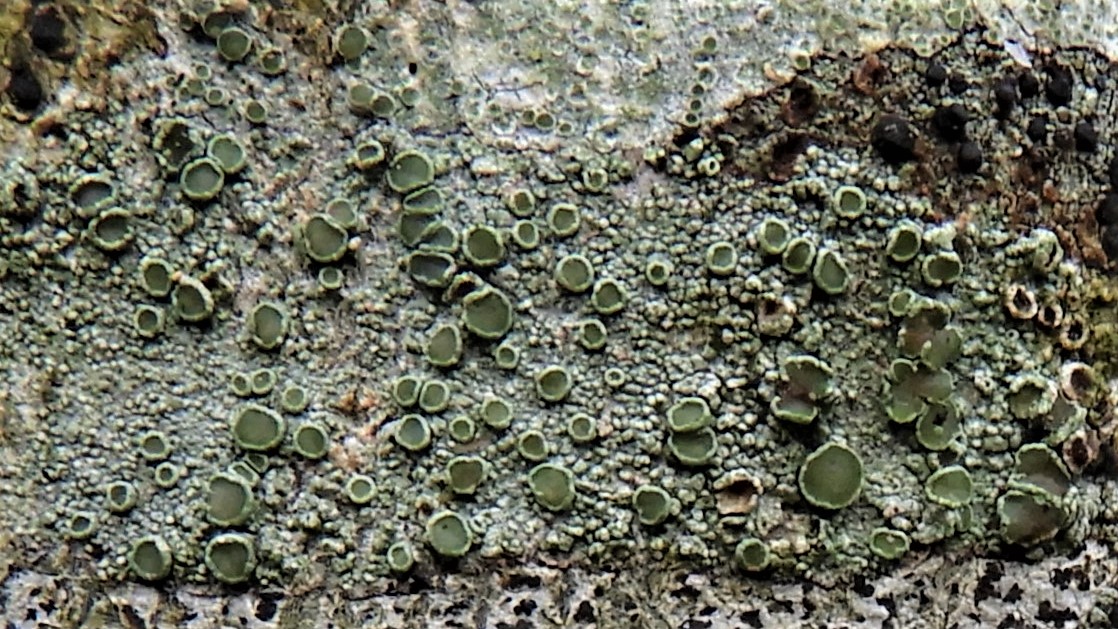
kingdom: Fungi
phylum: Ascomycota
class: Lecanoromycetes
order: Lecanorales
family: Lecanoraceae
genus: Lecanora
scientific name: Lecanora chlarotera
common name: brun kantskivelav
